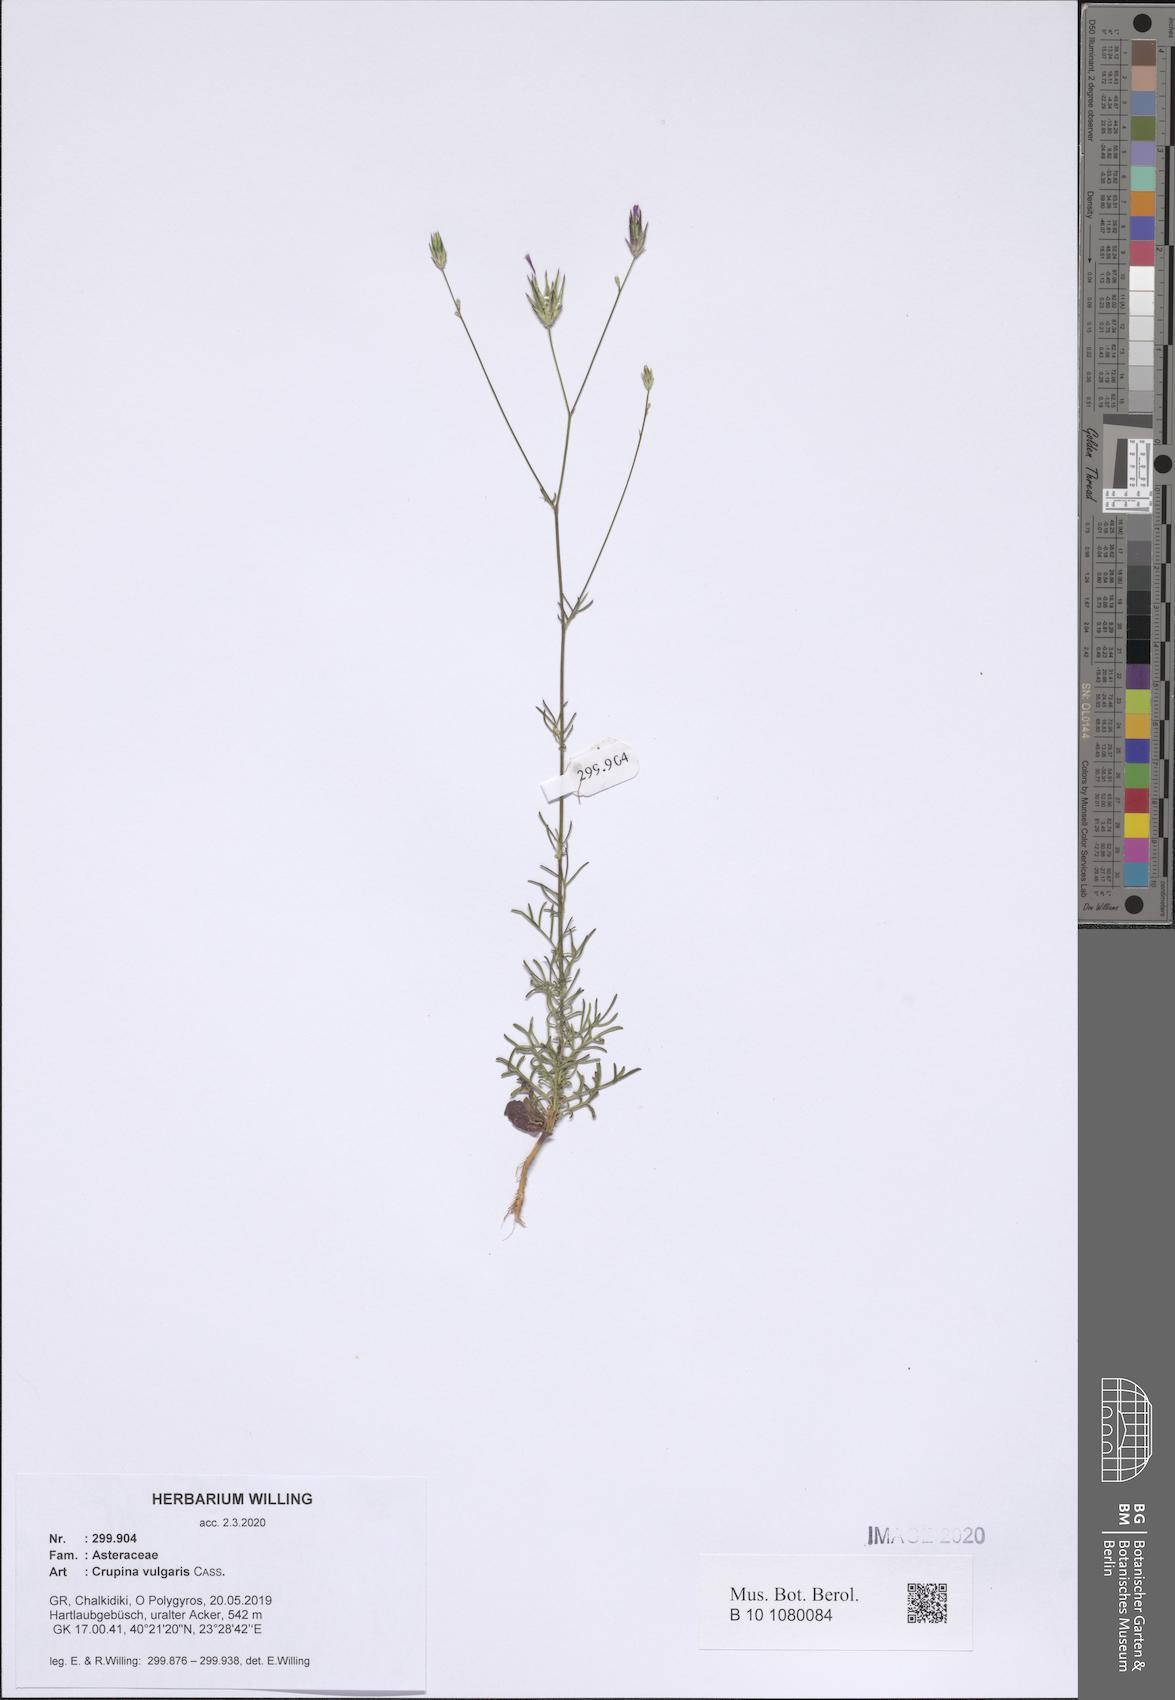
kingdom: Plantae
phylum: Tracheophyta
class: Magnoliopsida
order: Asterales
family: Asteraceae
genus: Crupina
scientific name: Crupina vulgaris
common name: Common crupina
